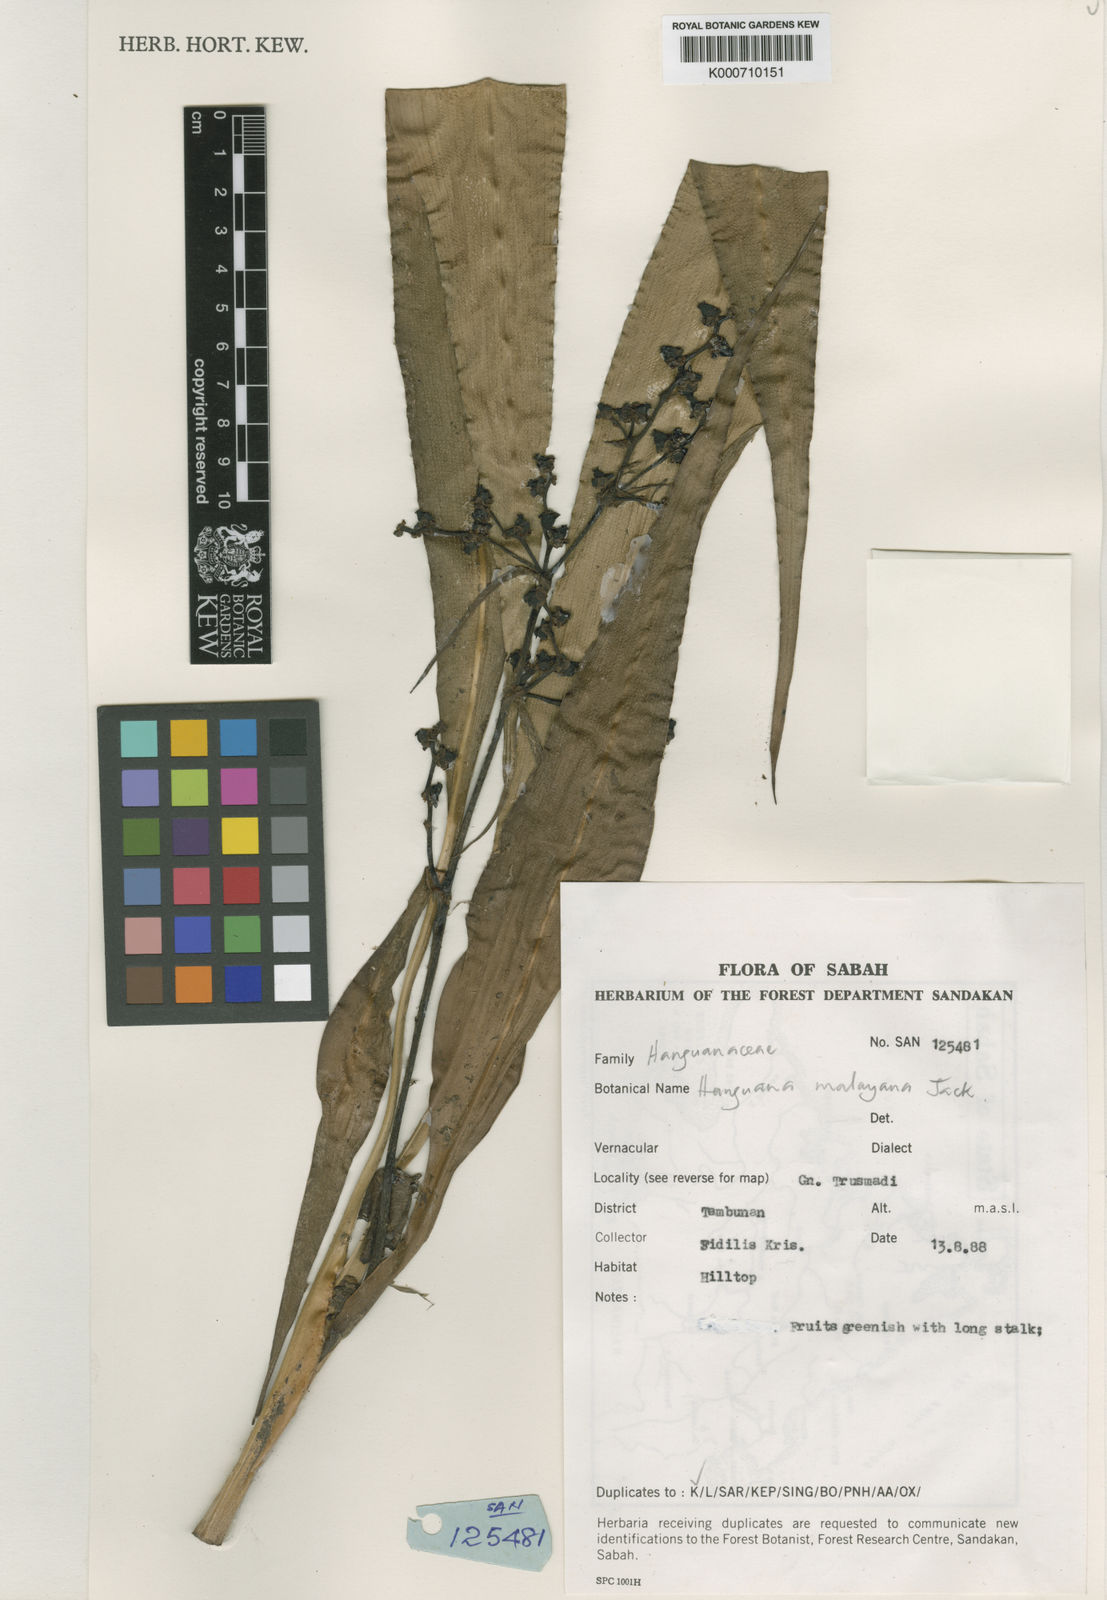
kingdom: Plantae
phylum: Tracheophyta
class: Liliopsida
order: Commelinales
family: Hanguanaceae
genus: Hanguana
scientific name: Hanguana malayana
